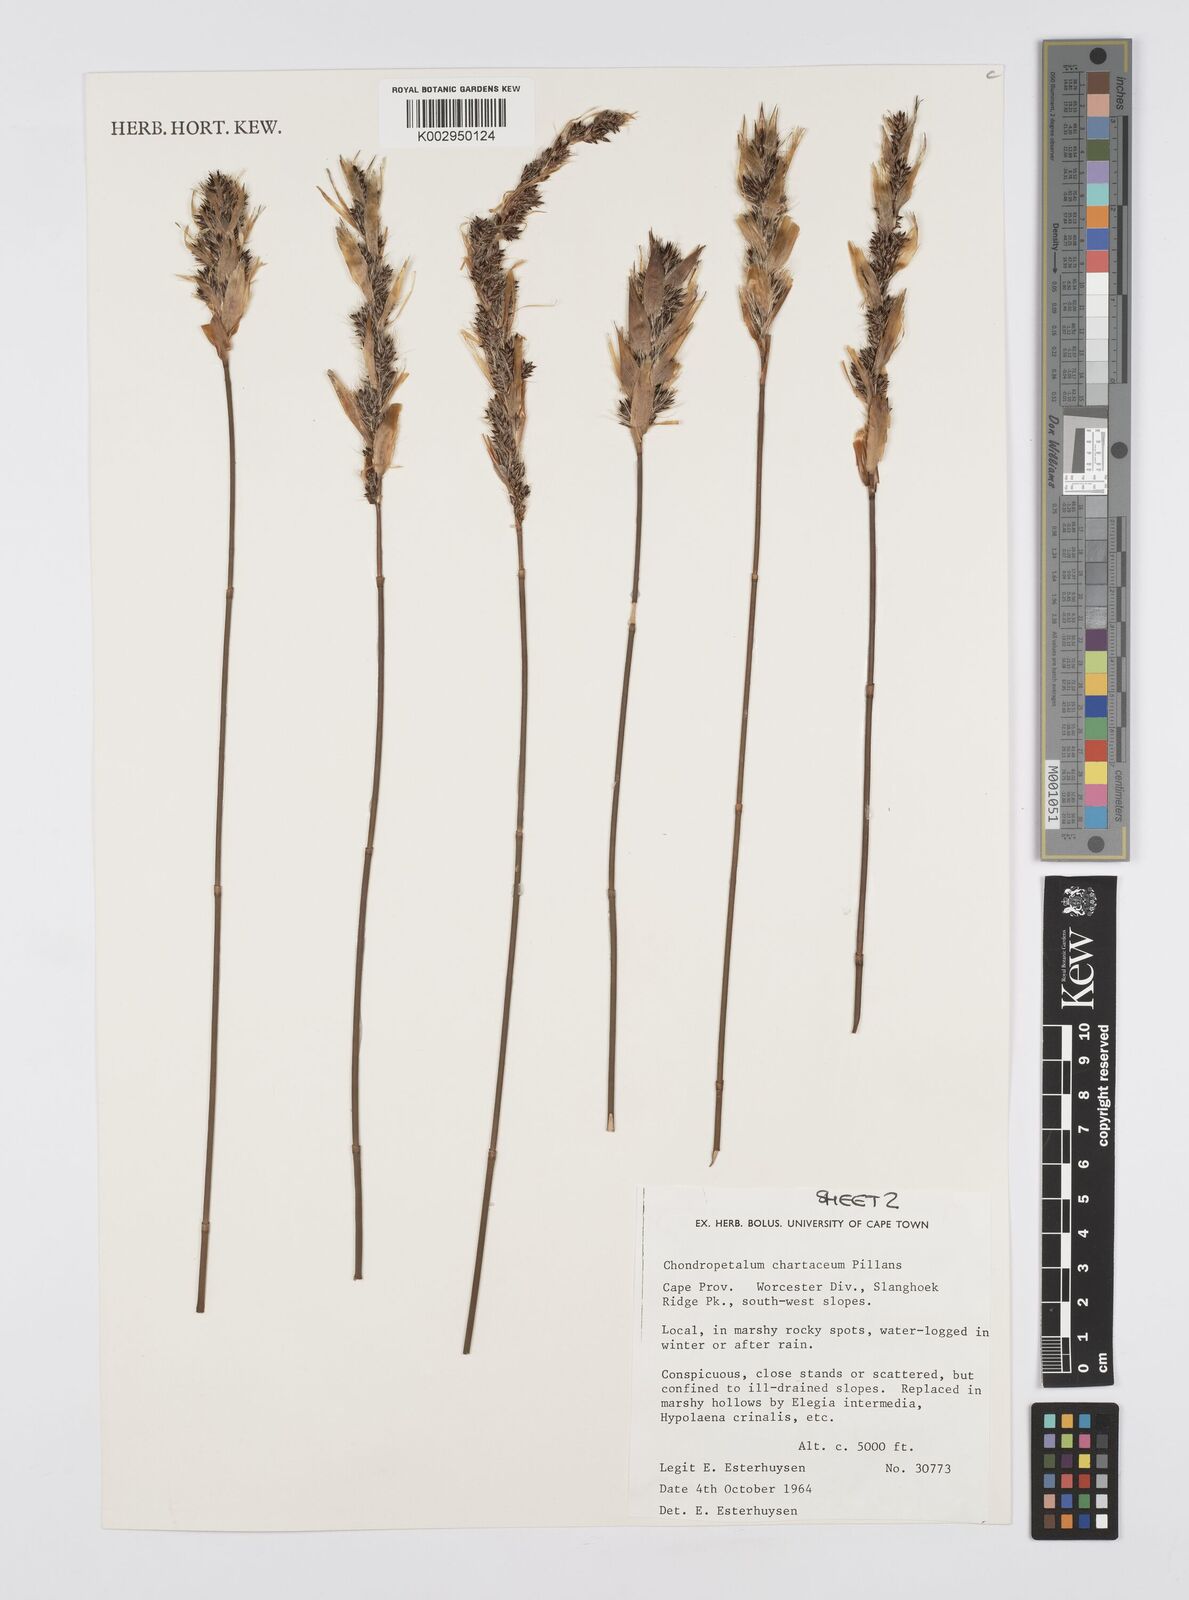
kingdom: Plantae
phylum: Tracheophyta
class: Liliopsida
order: Poales
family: Restionaceae
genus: Askidiosperma
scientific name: Askidiosperma chartaceum
